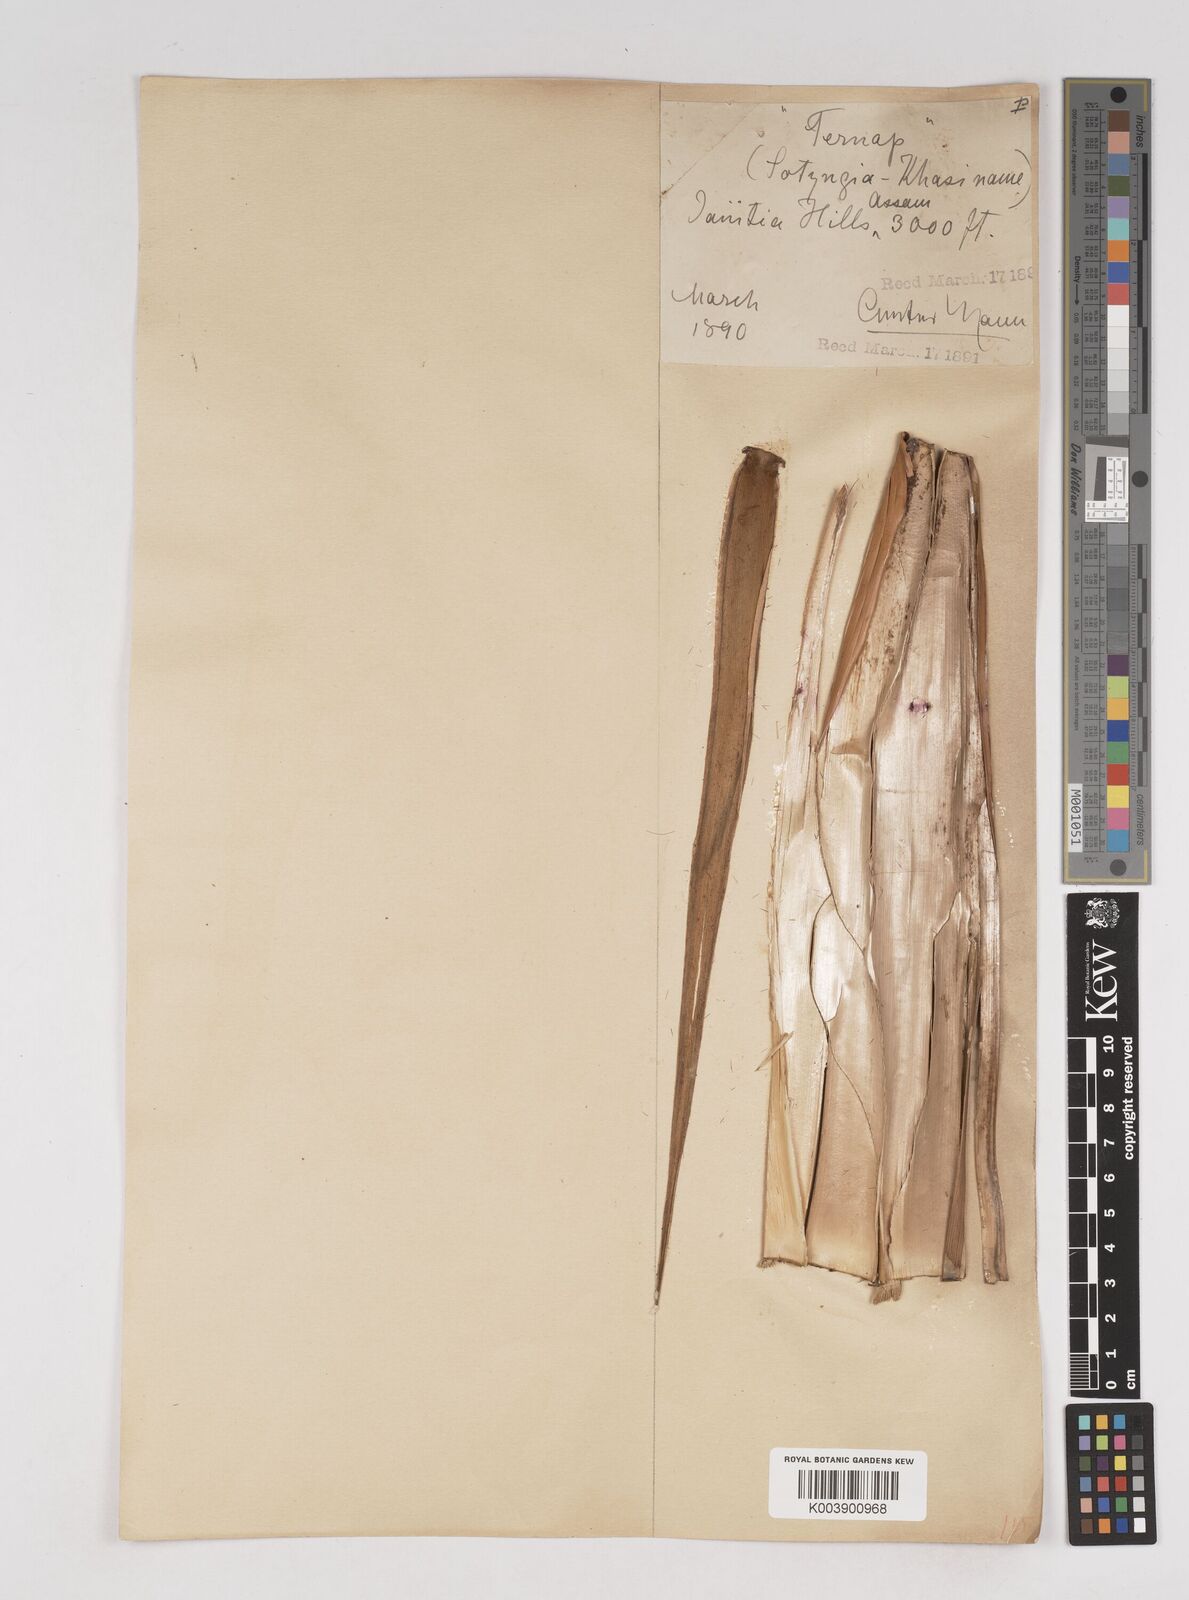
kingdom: Plantae
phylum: Tracheophyta
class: Liliopsida
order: Poales
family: Poaceae
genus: Cephalostachyum
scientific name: Cephalostachyum capitatum
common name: Hollow bamboo
